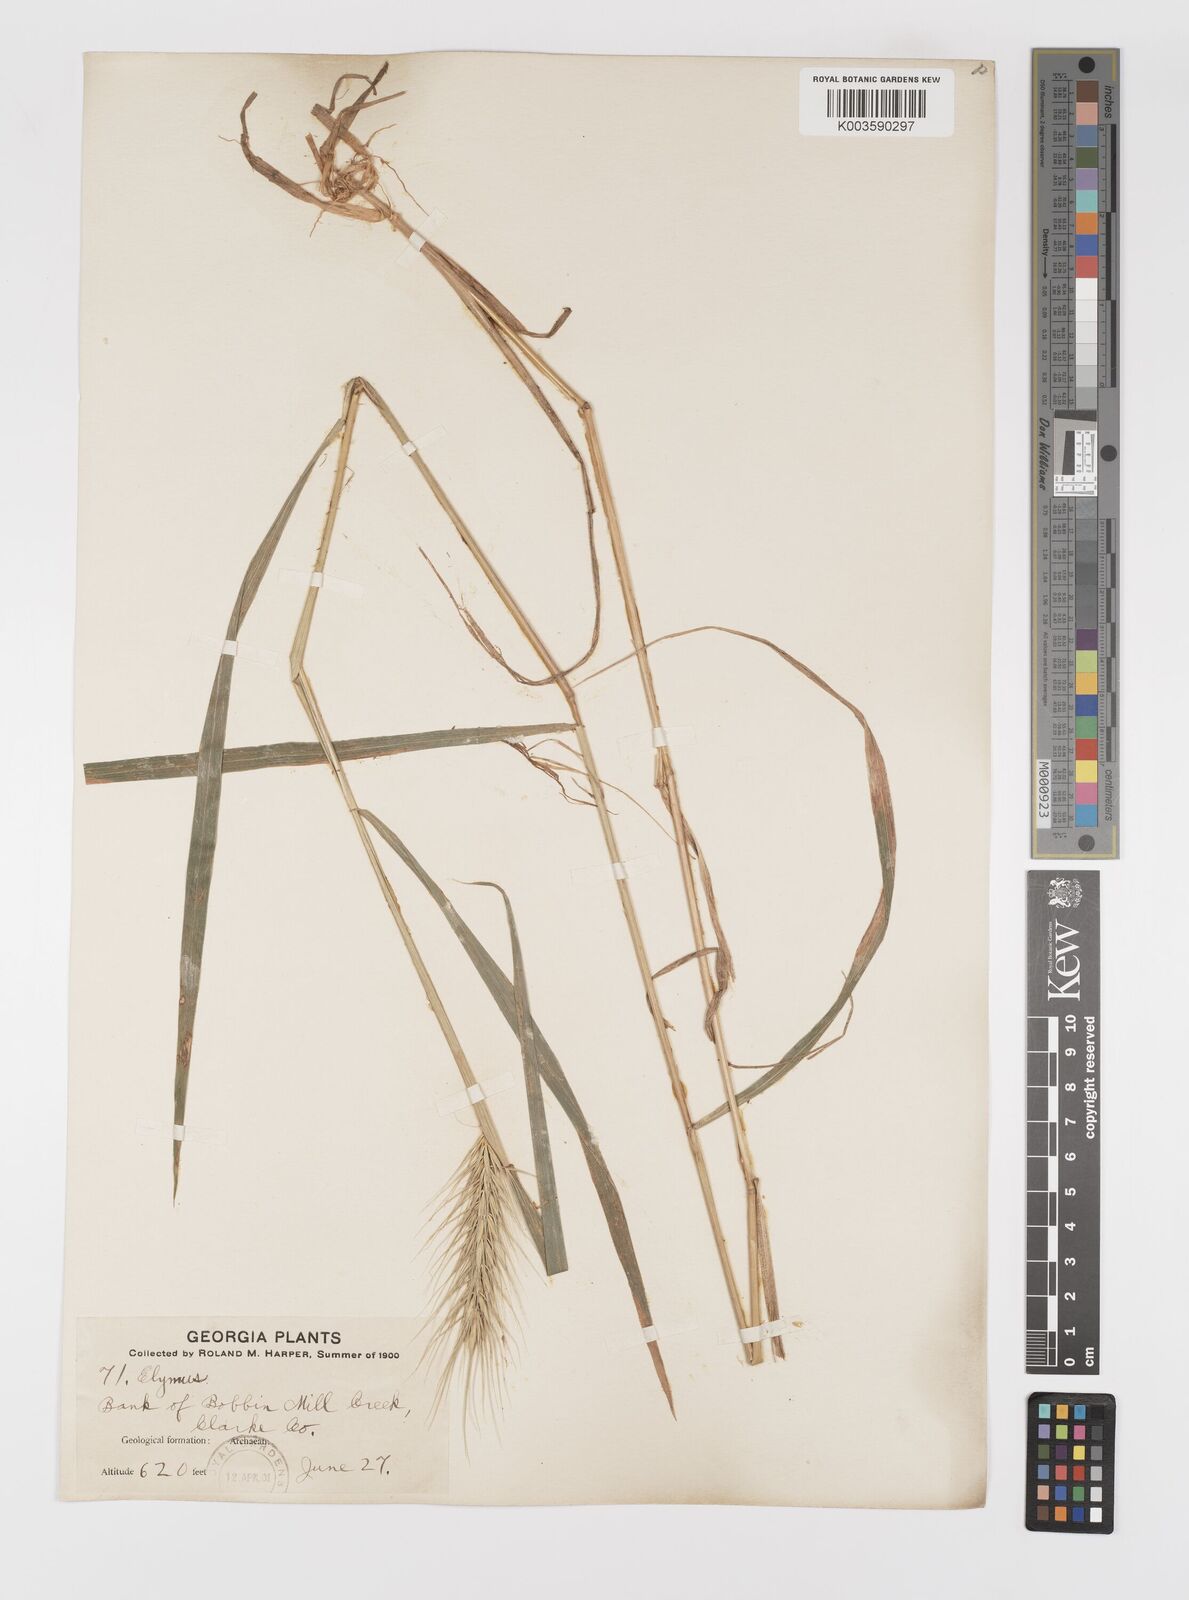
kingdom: Plantae
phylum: Tracheophyta
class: Liliopsida
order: Poales
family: Poaceae
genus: Elymus
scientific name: Elymus
